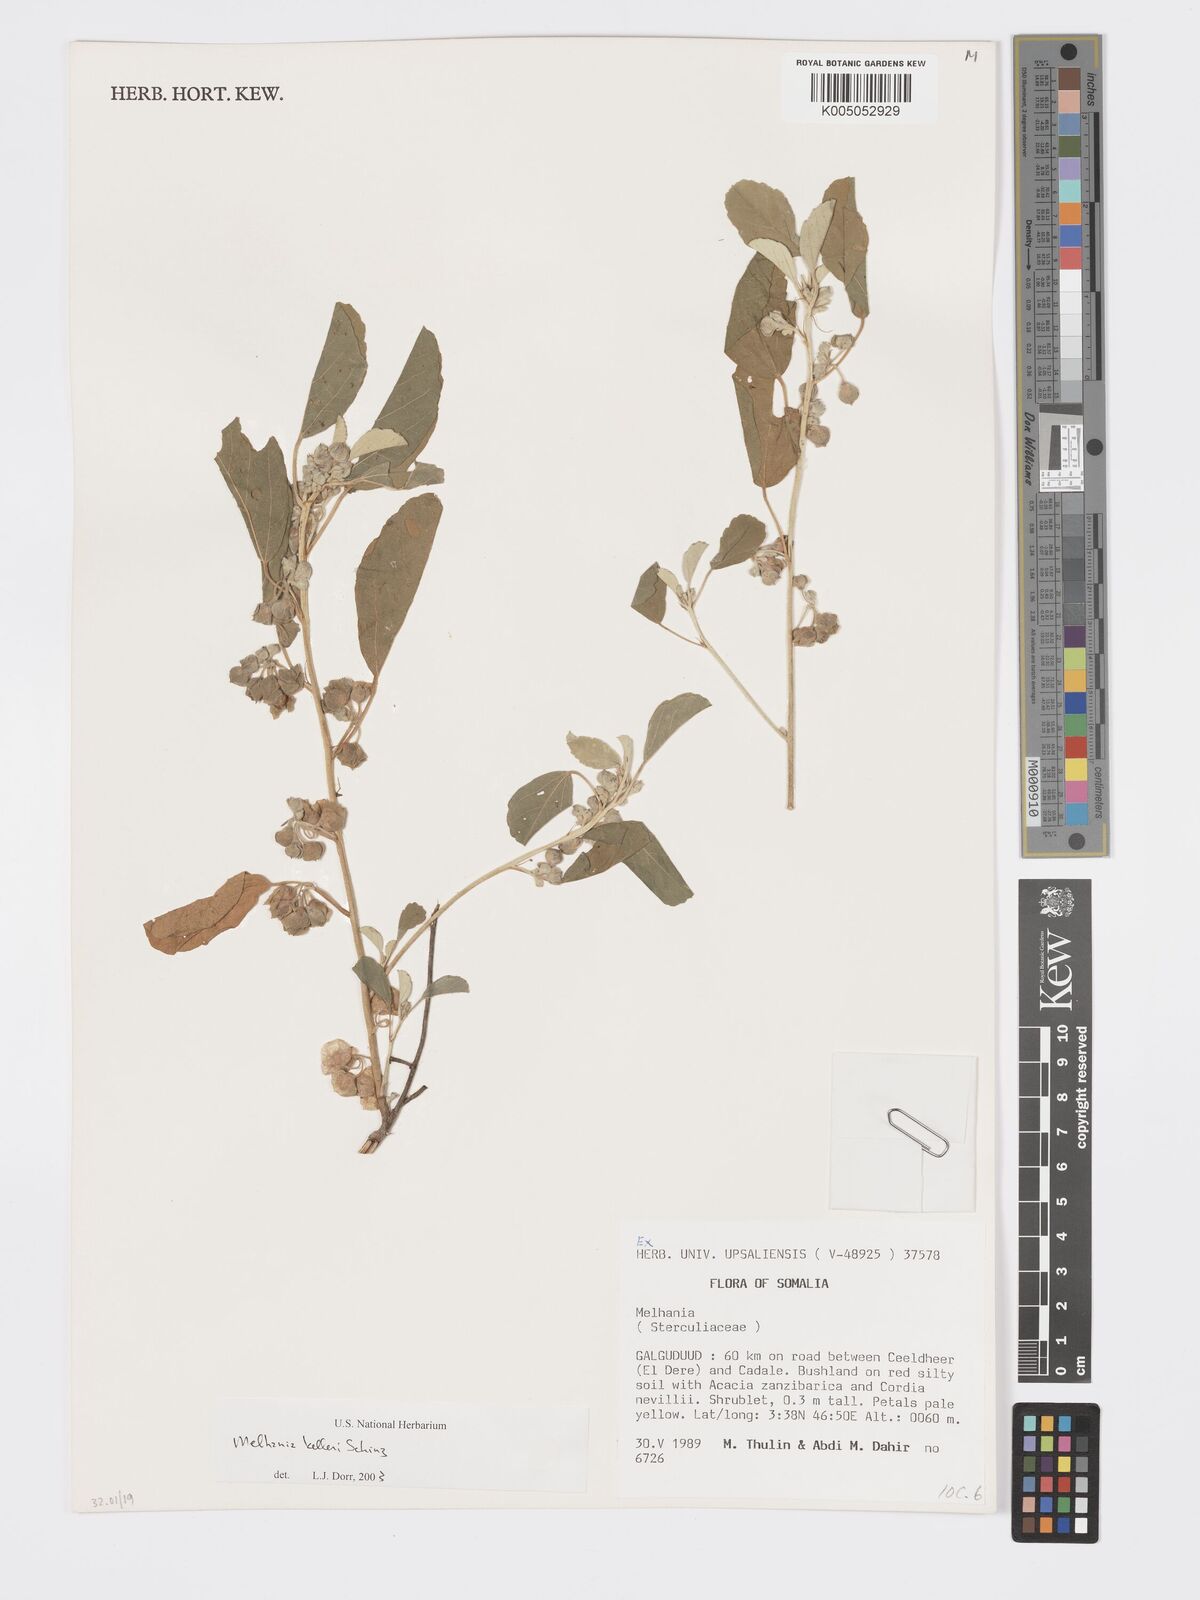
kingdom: Plantae
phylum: Tracheophyta
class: Magnoliopsida
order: Malvales
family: Malvaceae
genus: Melhania
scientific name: Melhania kelleri
